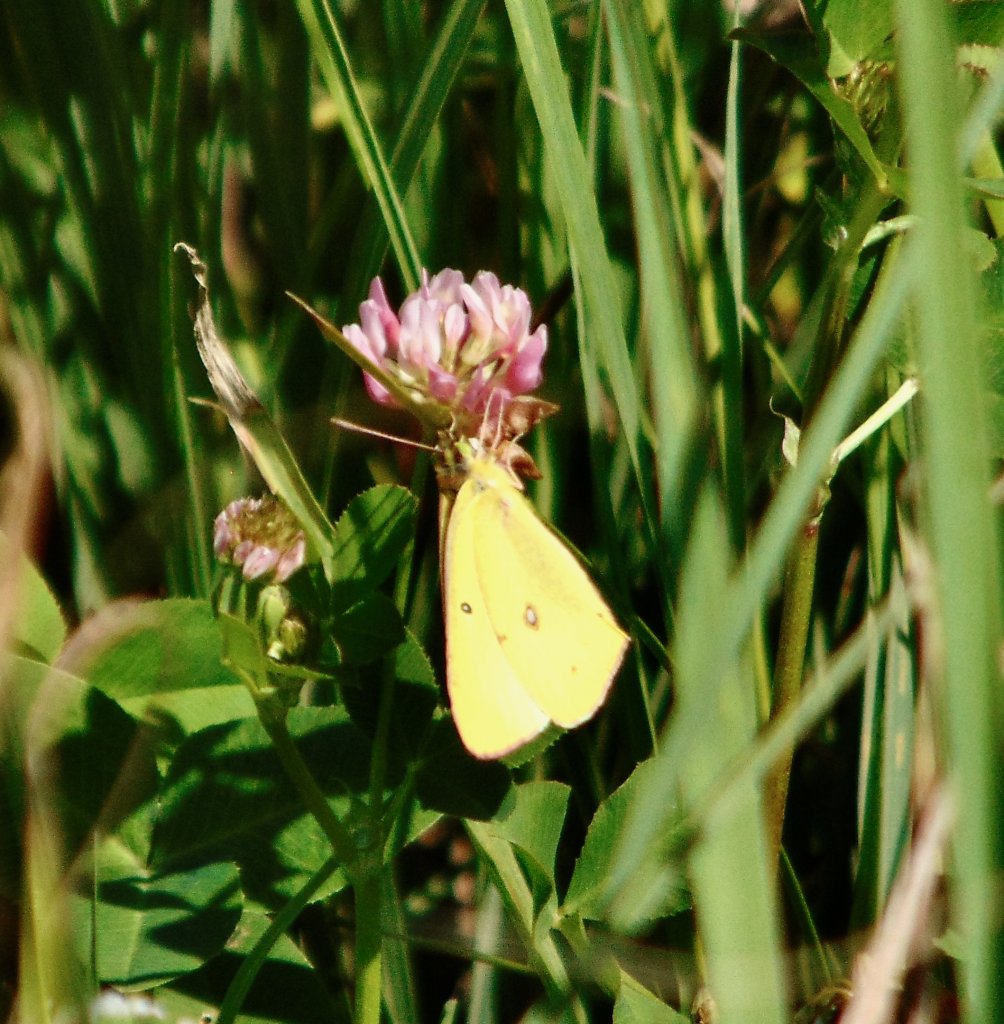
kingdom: Animalia
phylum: Arthropoda
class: Insecta
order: Lepidoptera
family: Pieridae
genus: Colias
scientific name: Colias philodice
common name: Clouded Sulphur
